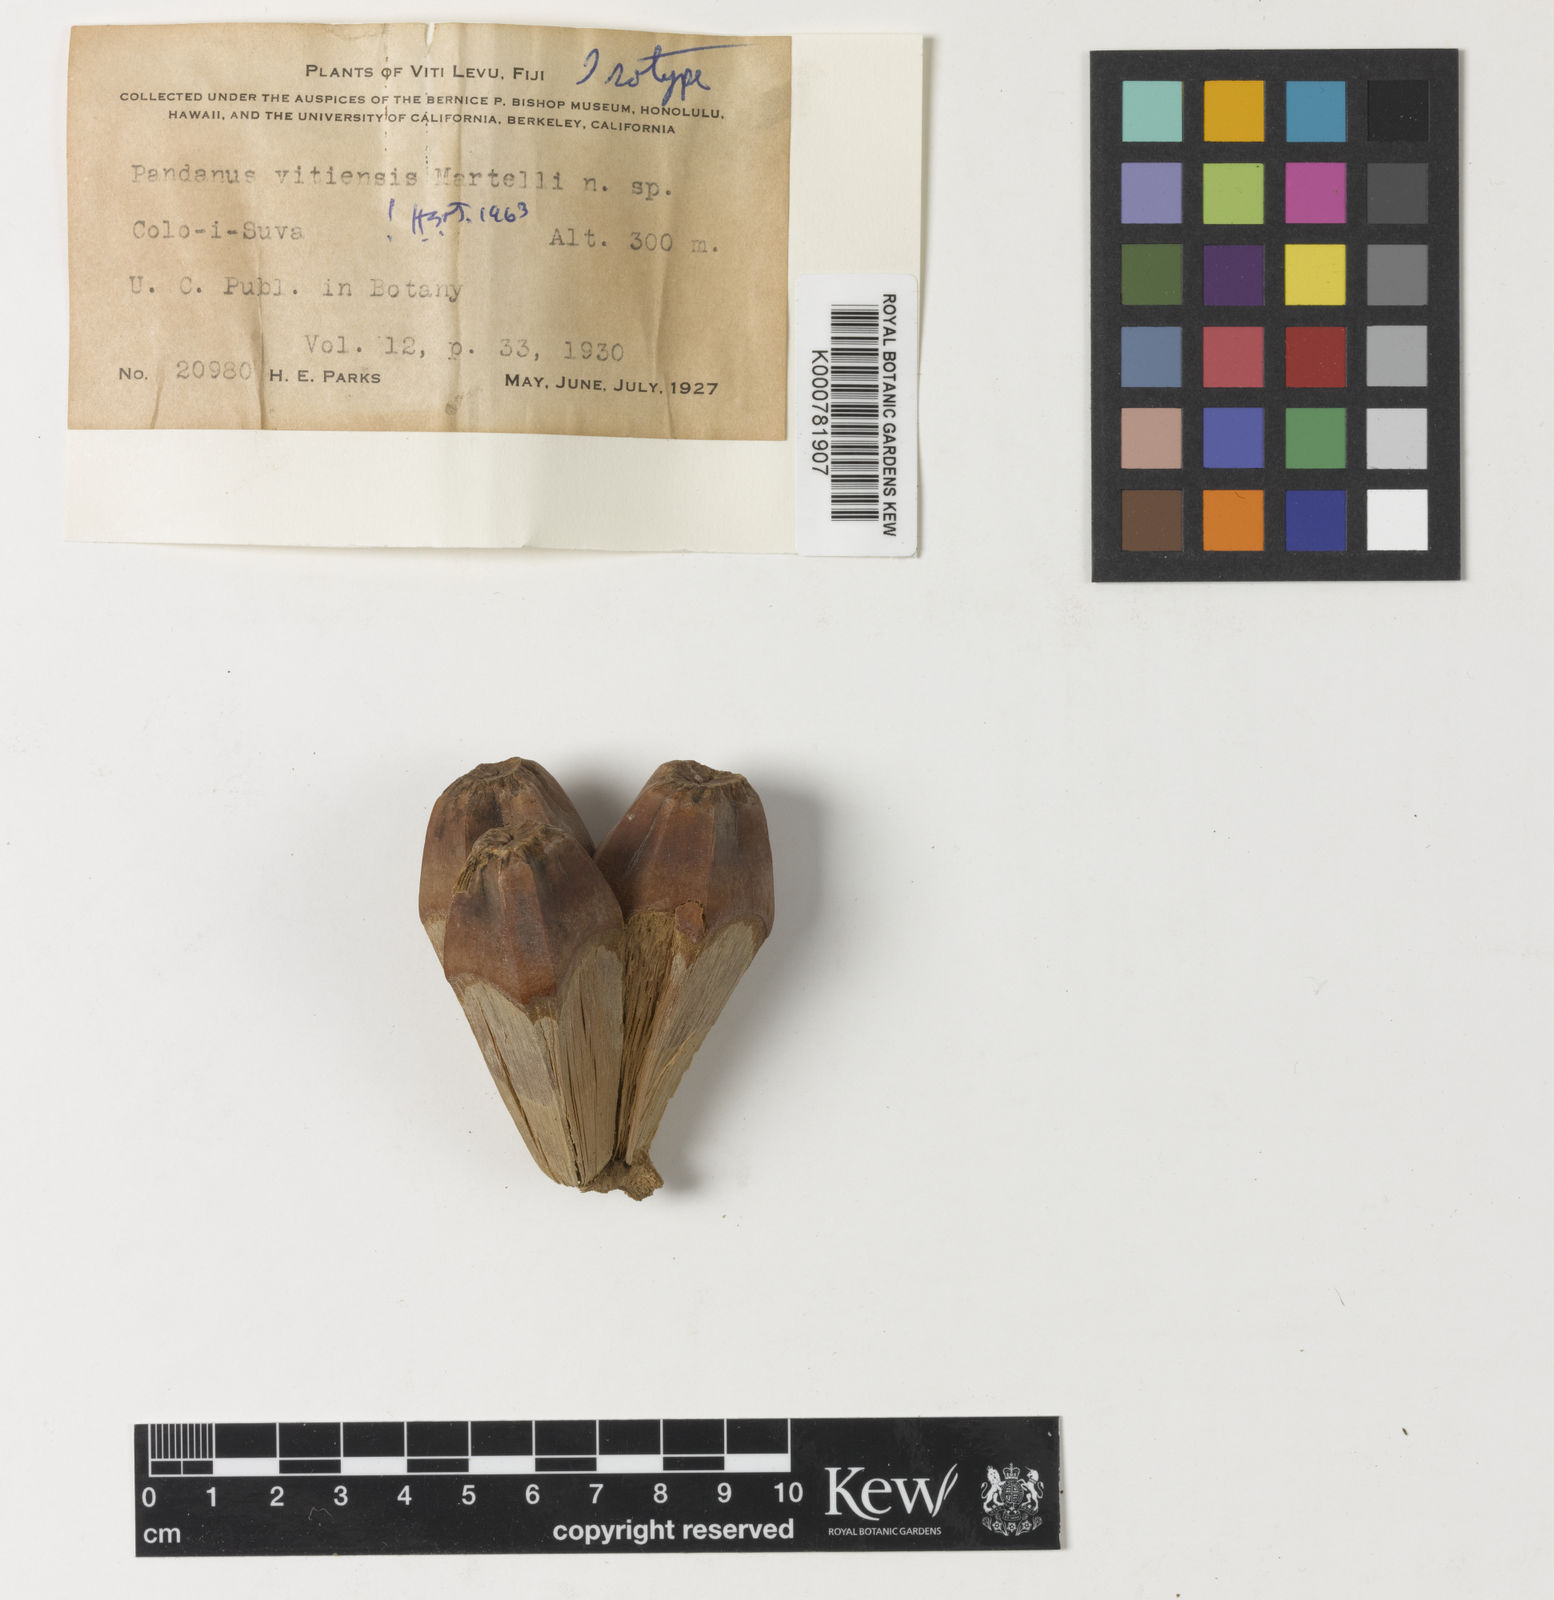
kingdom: Plantae
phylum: Tracheophyta
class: Liliopsida
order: Pandanales
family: Pandanaceae
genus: Pandanus
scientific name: Pandanus vitiensis
